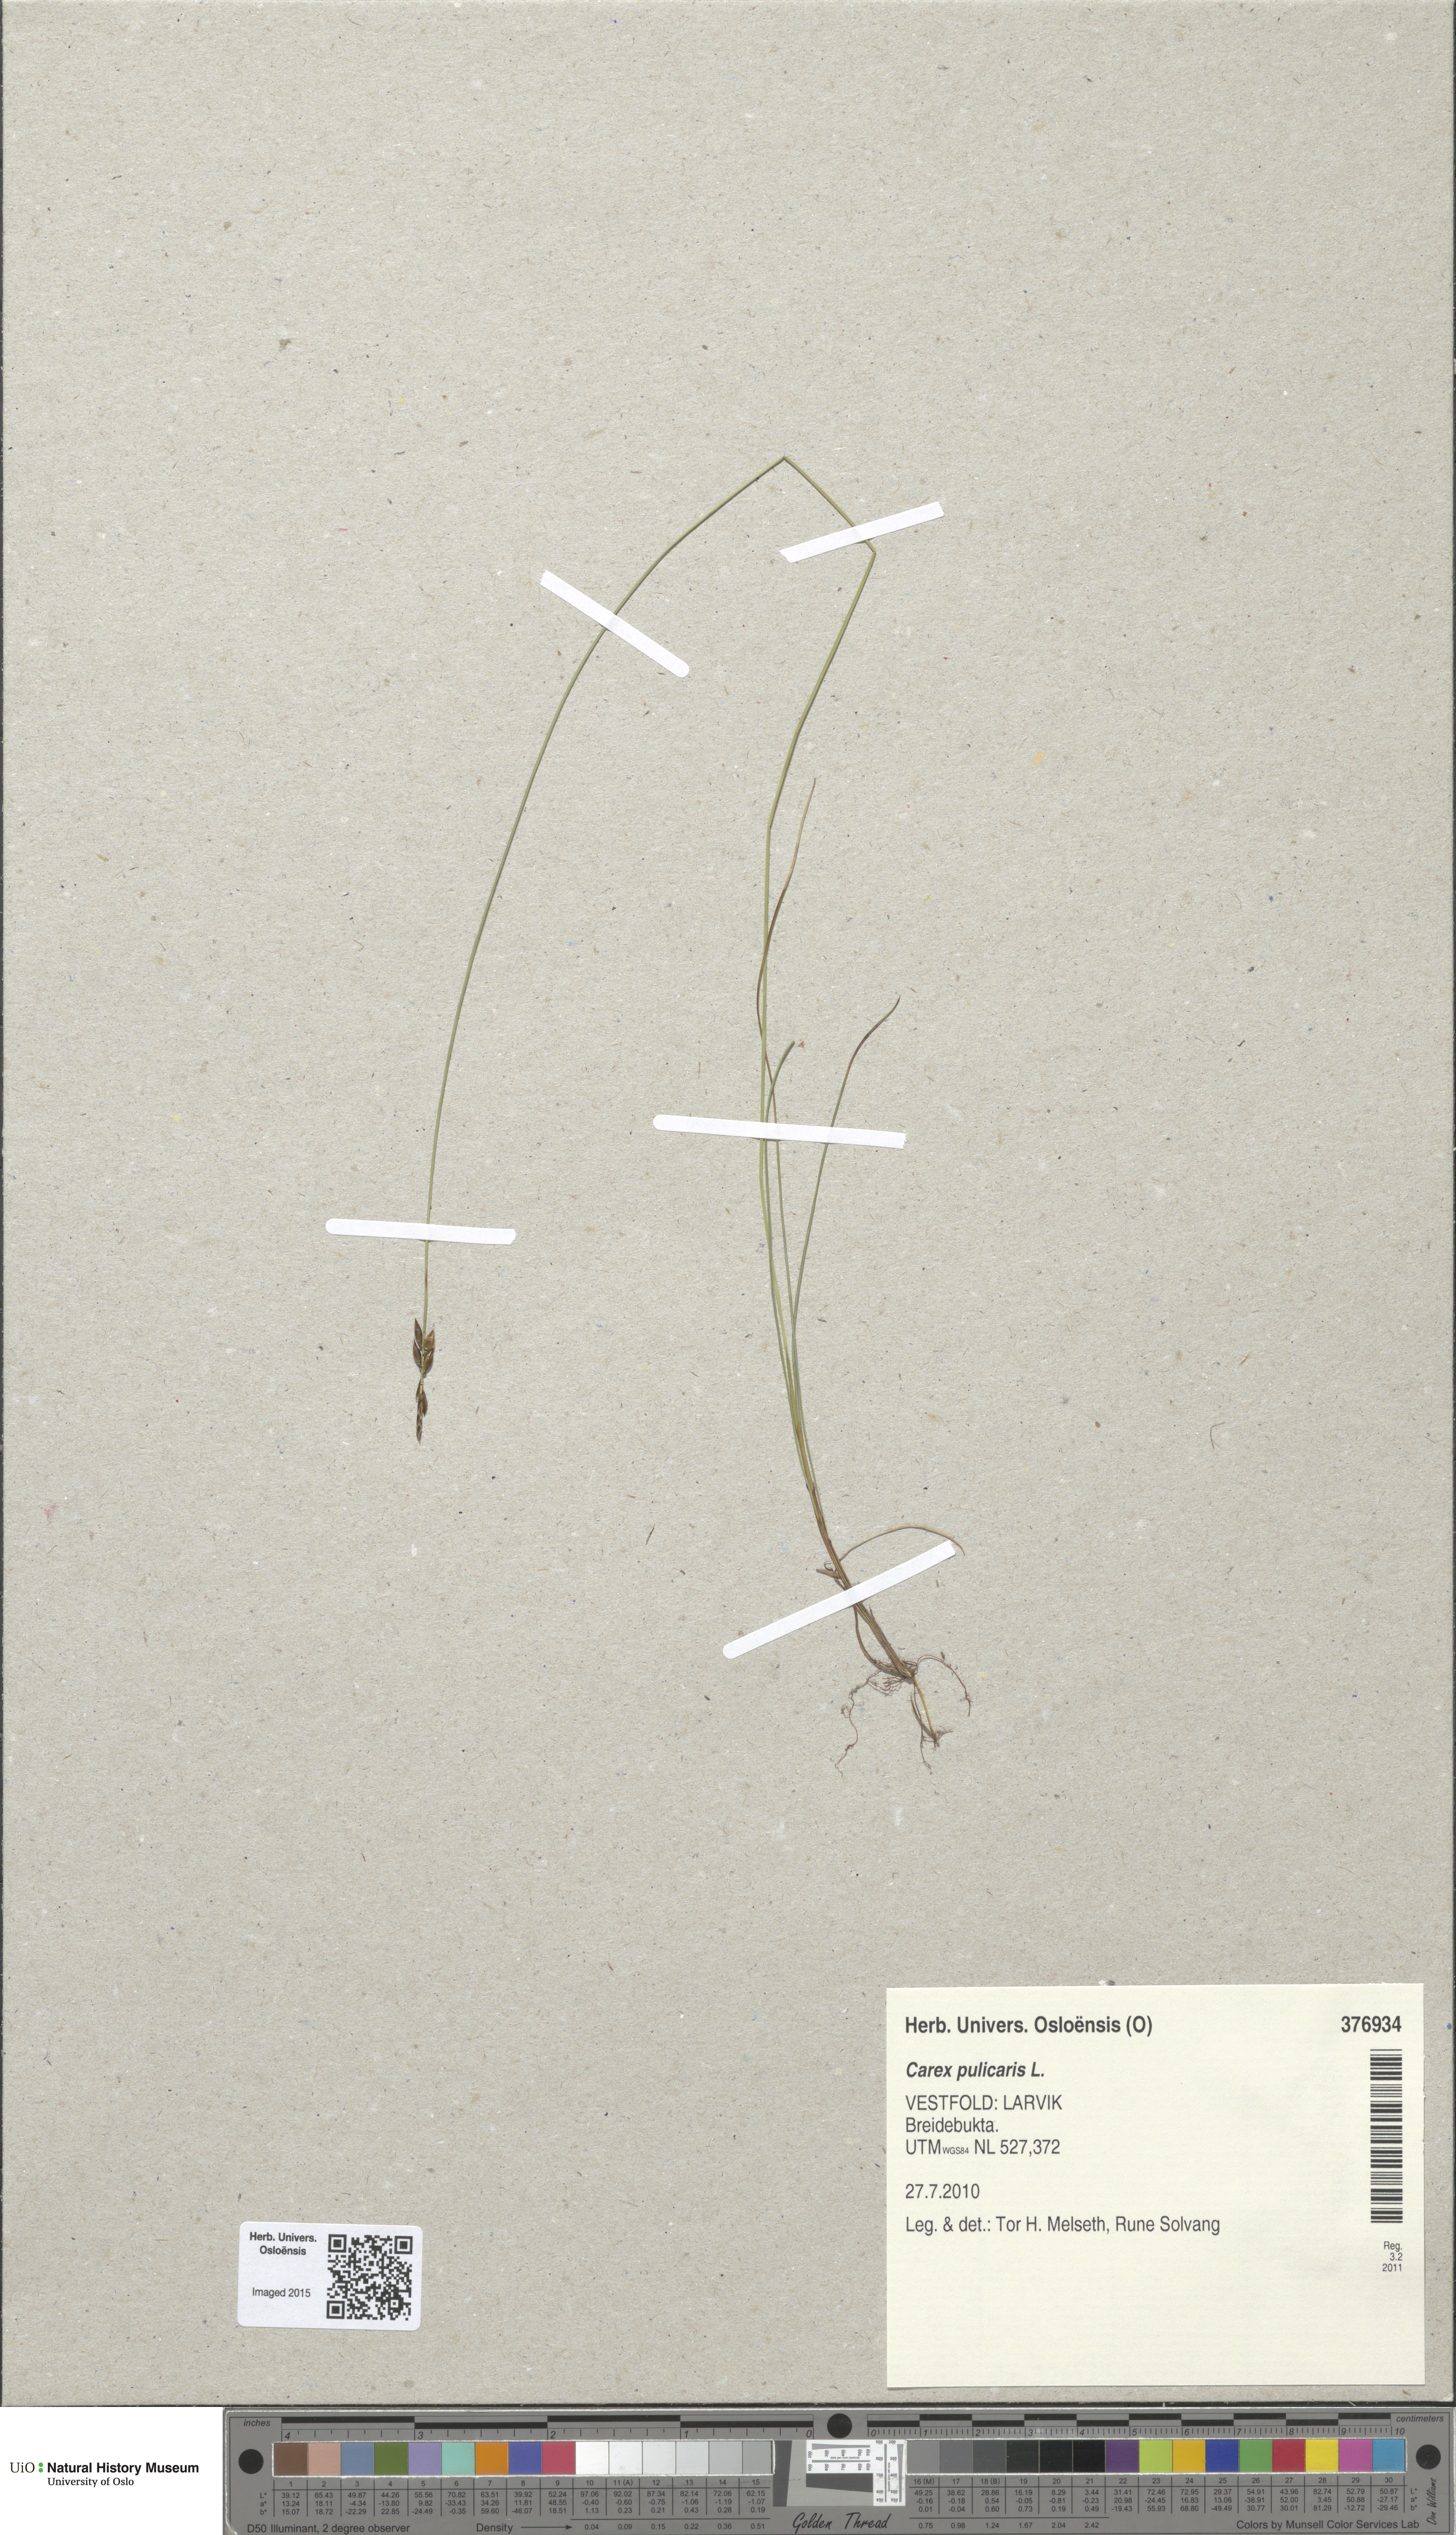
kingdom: Plantae
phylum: Tracheophyta
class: Liliopsida
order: Poales
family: Cyperaceae
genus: Carex
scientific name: Carex pulicaris
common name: Flea sedge
